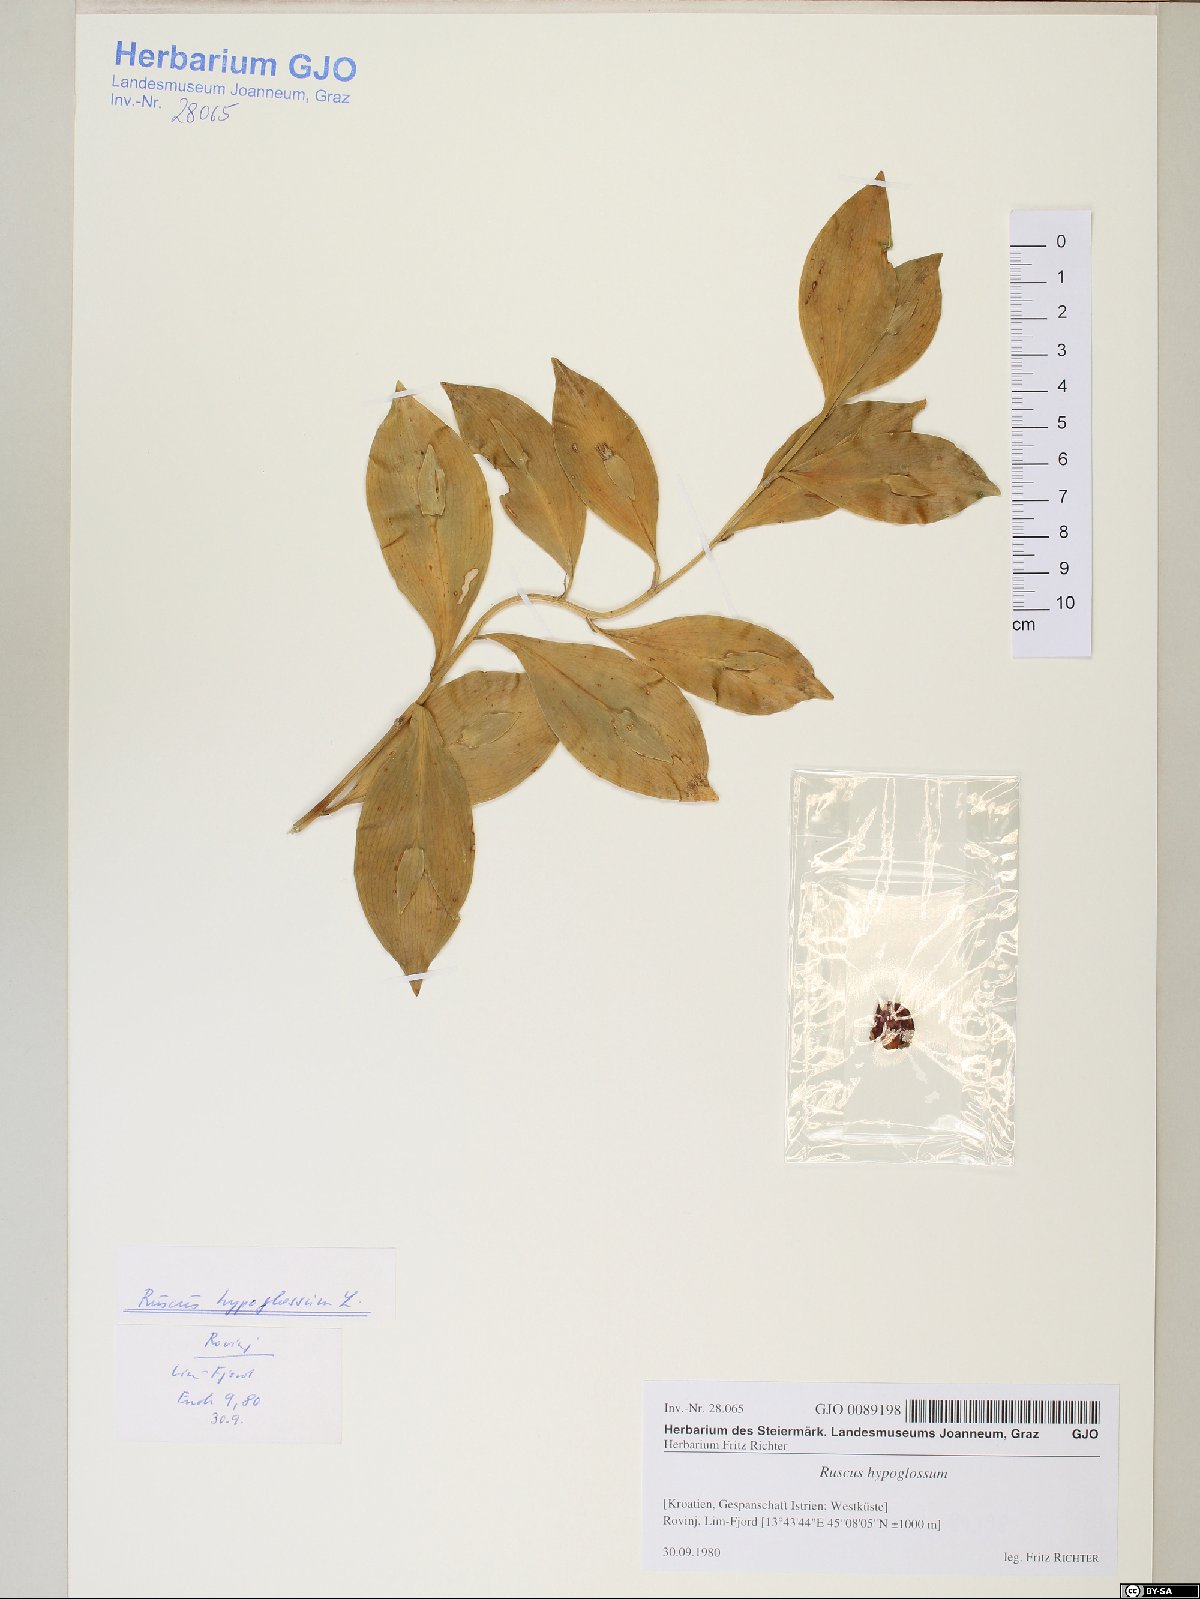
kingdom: Plantae
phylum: Tracheophyta
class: Liliopsida
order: Asparagales
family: Asparagaceae
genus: Ruscus
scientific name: Ruscus hypoglossum
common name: Spineless butcher's-broom
